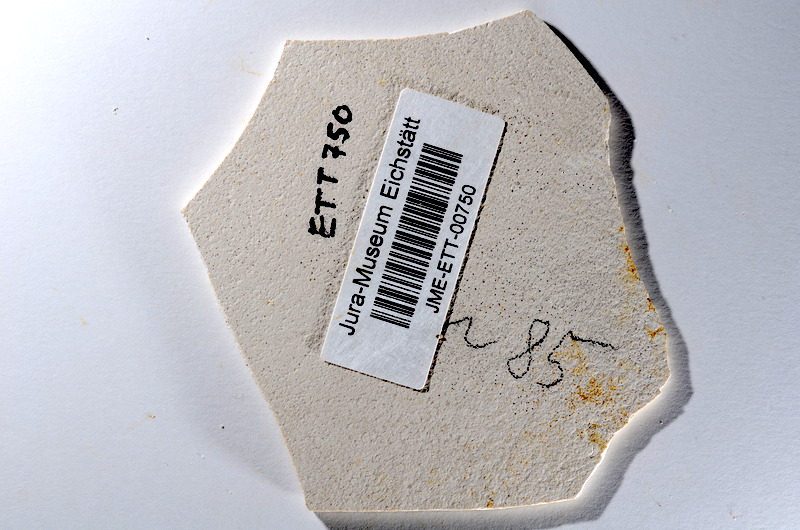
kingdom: Animalia
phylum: Chordata
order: Salmoniformes
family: Orthogonikleithridae
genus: Orthogonikleithrus
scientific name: Orthogonikleithrus hoelli
